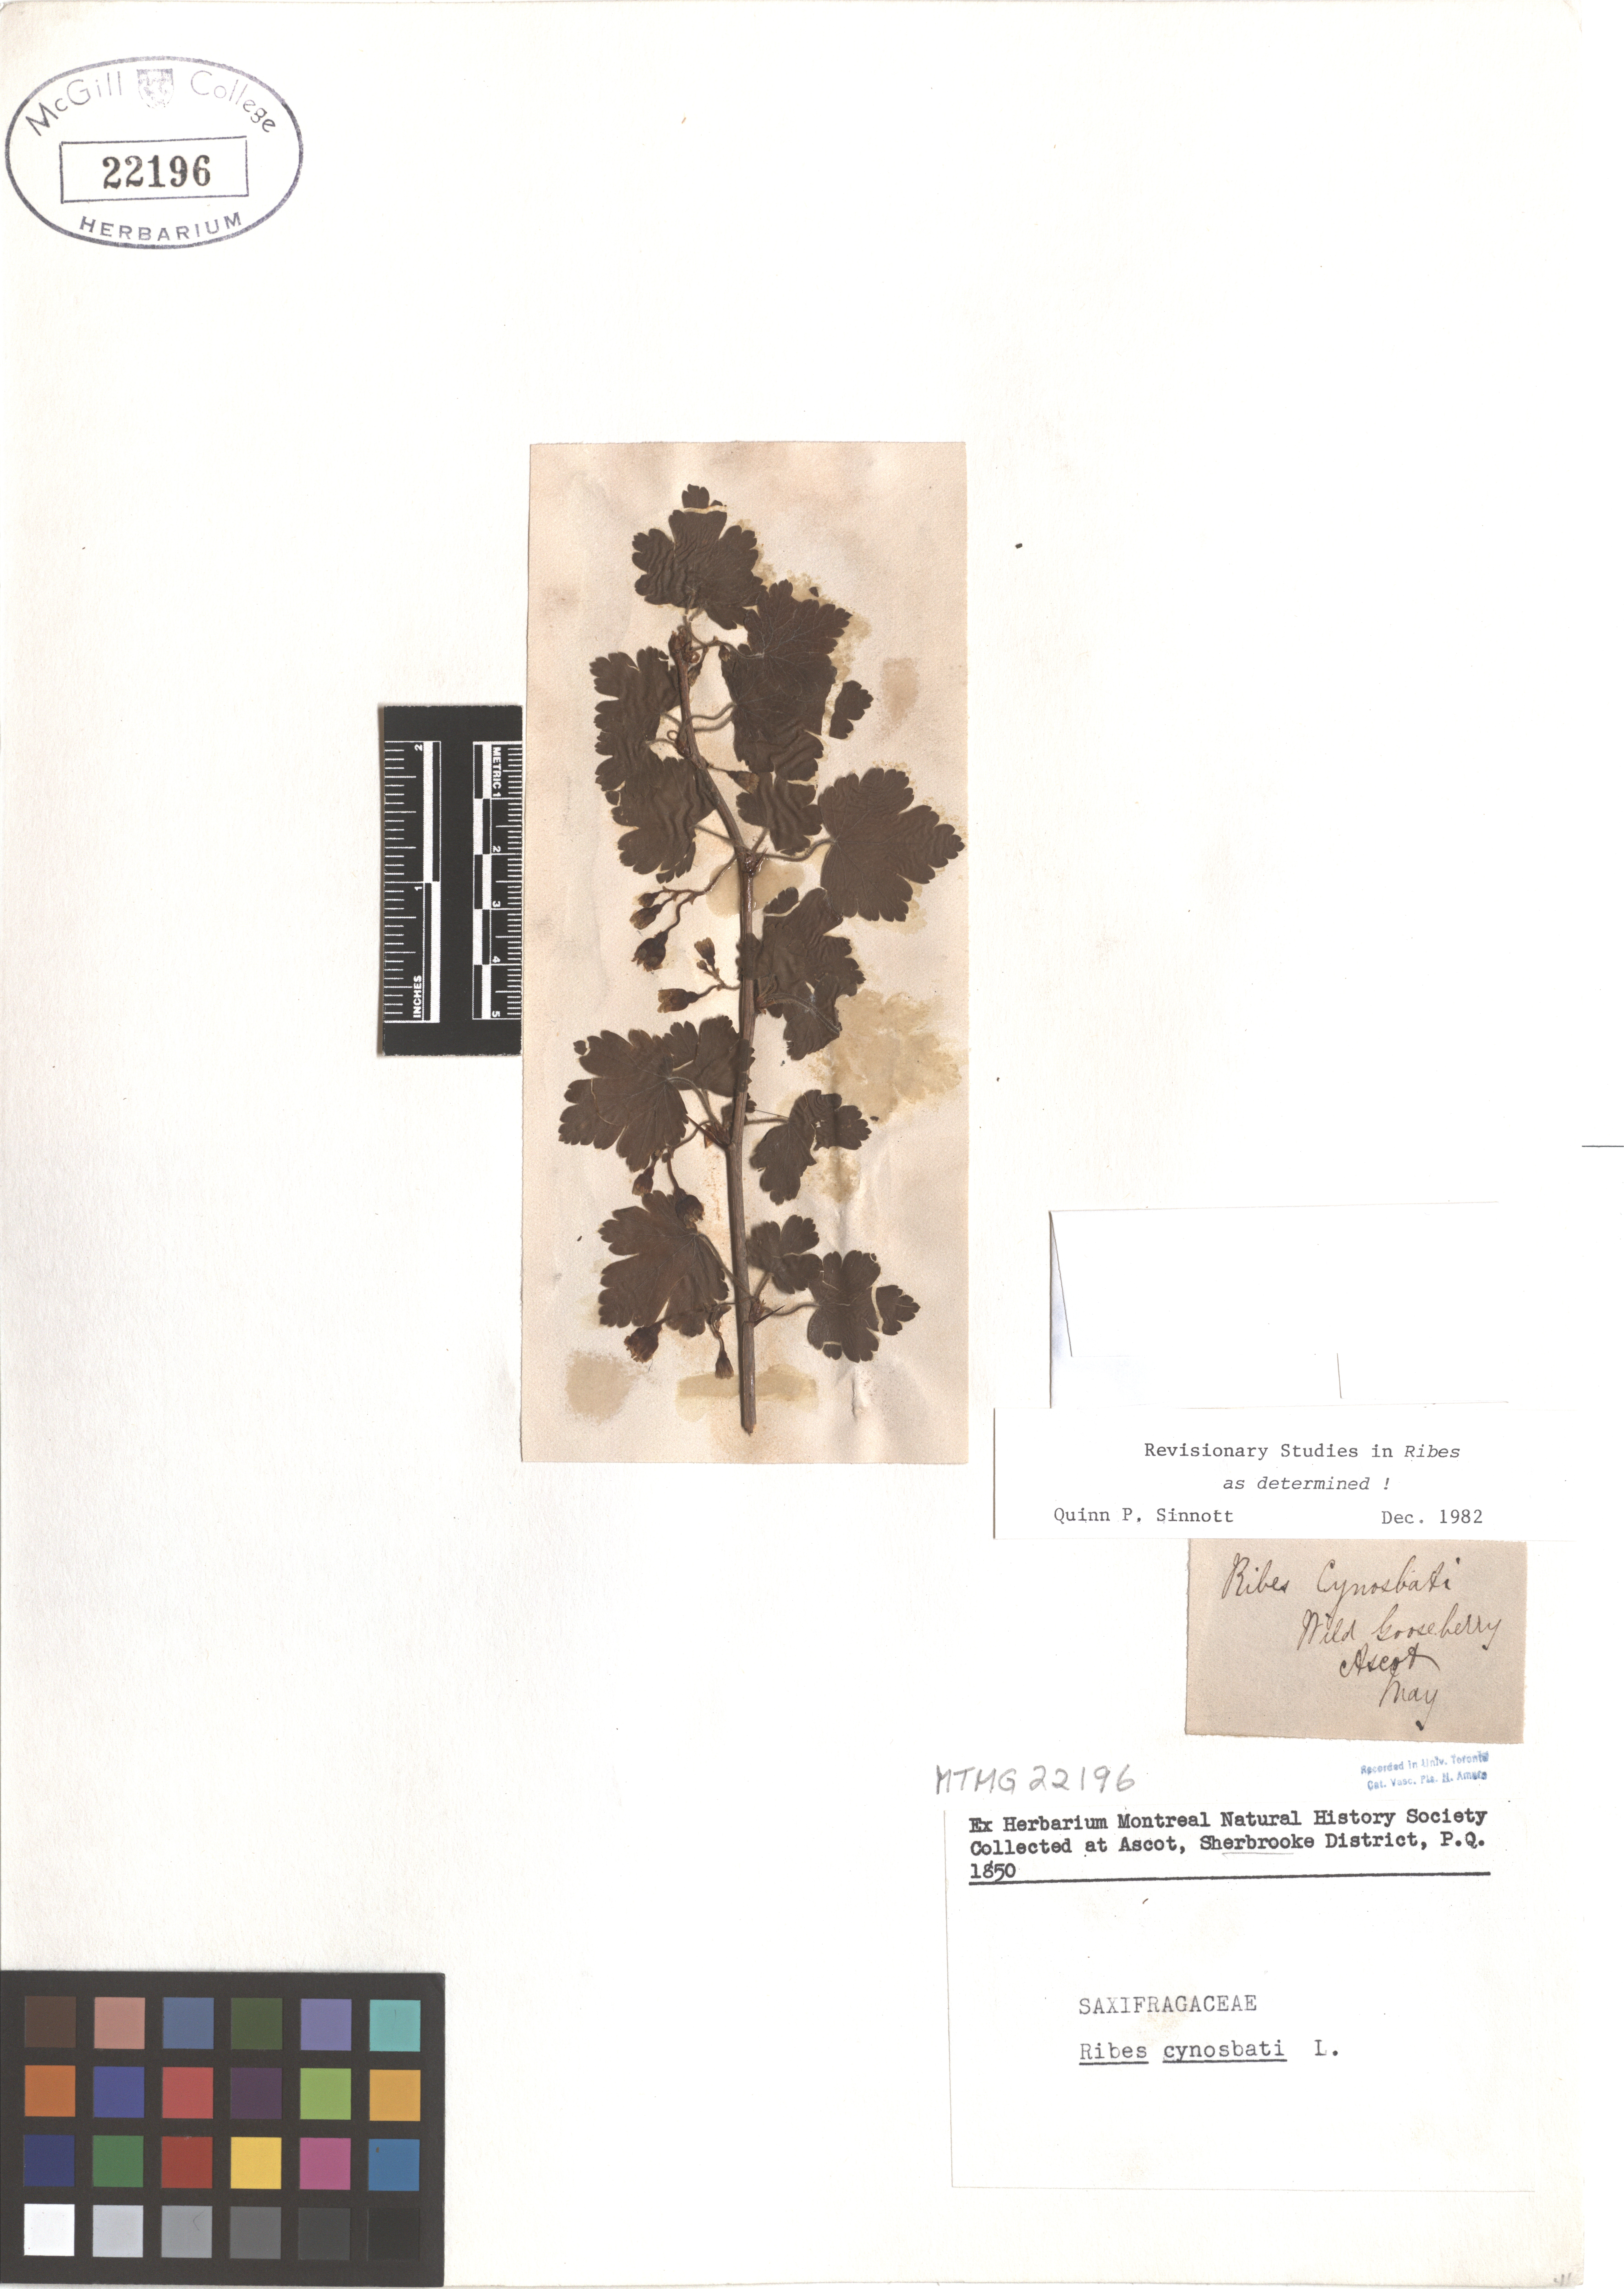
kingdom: Plantae
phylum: Tracheophyta
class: Magnoliopsida
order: Saxifragales
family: Grossulariaceae
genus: Ribes
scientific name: Ribes cynosbati
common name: American gooseberry
